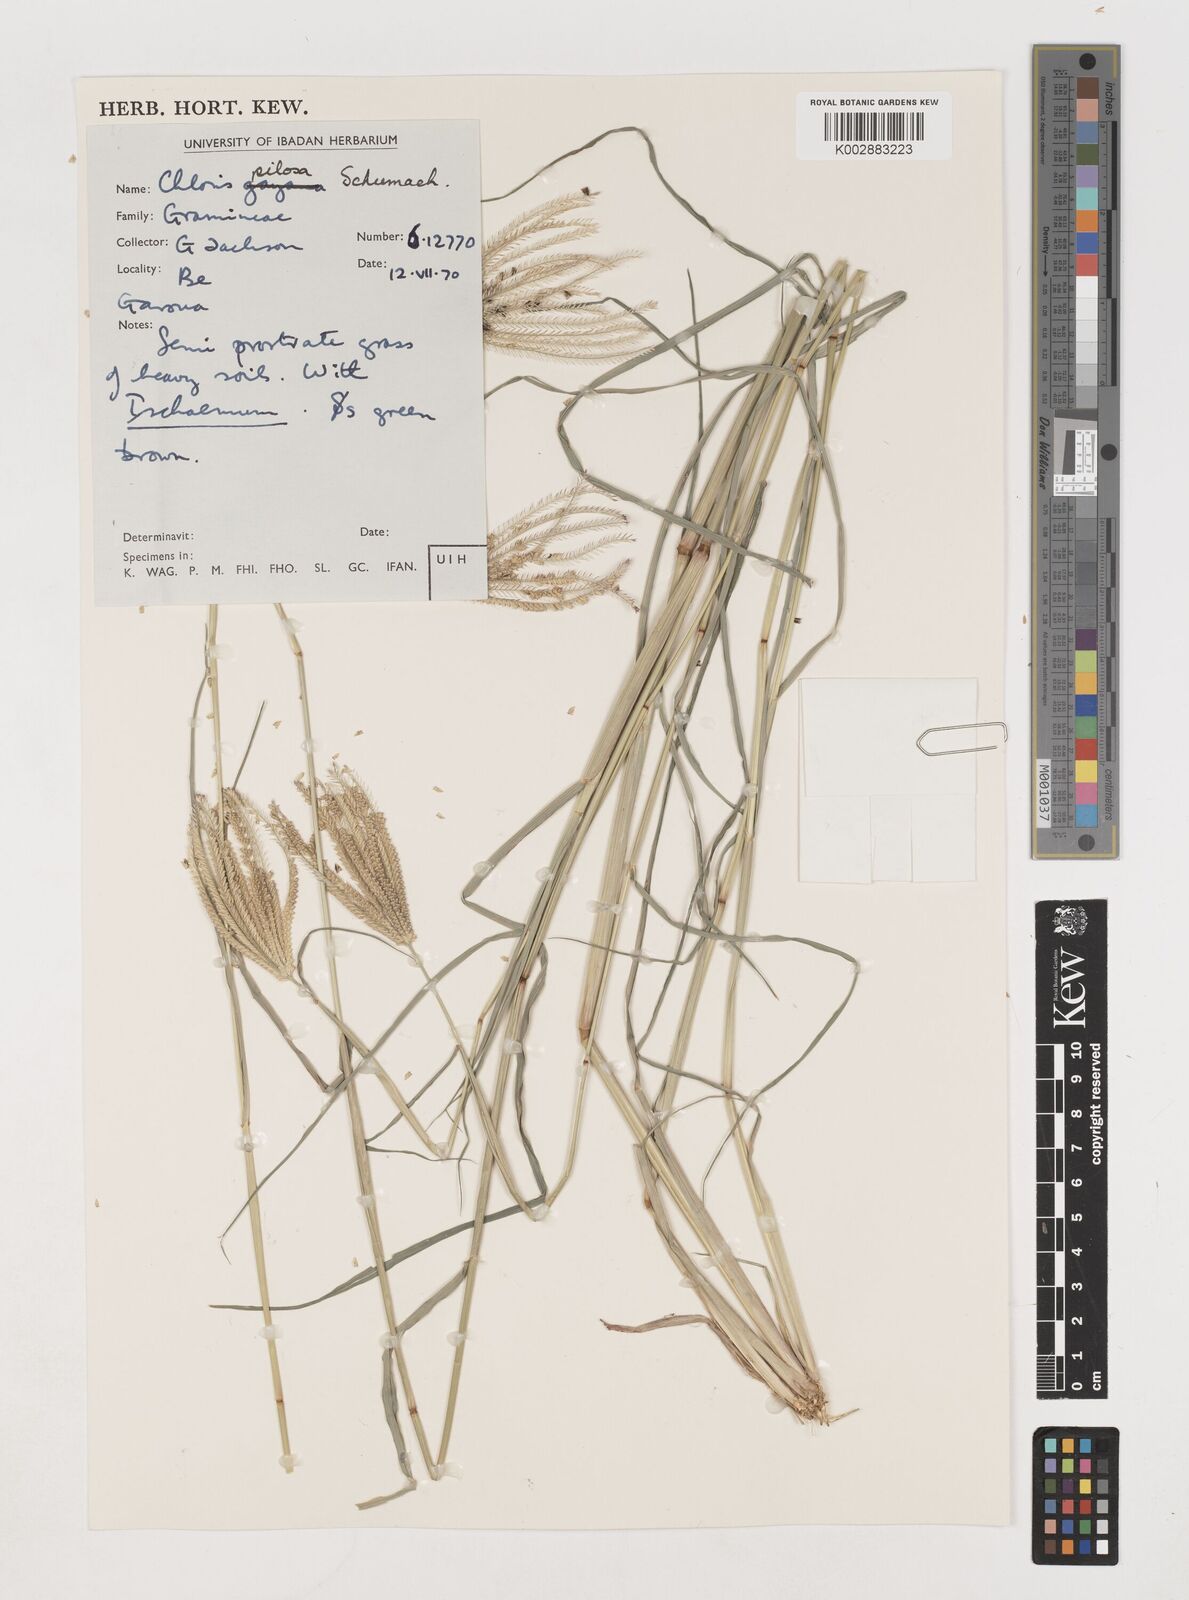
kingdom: Plantae
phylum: Tracheophyta
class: Liliopsida
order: Poales
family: Poaceae
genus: Chloris
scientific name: Chloris pilosa
